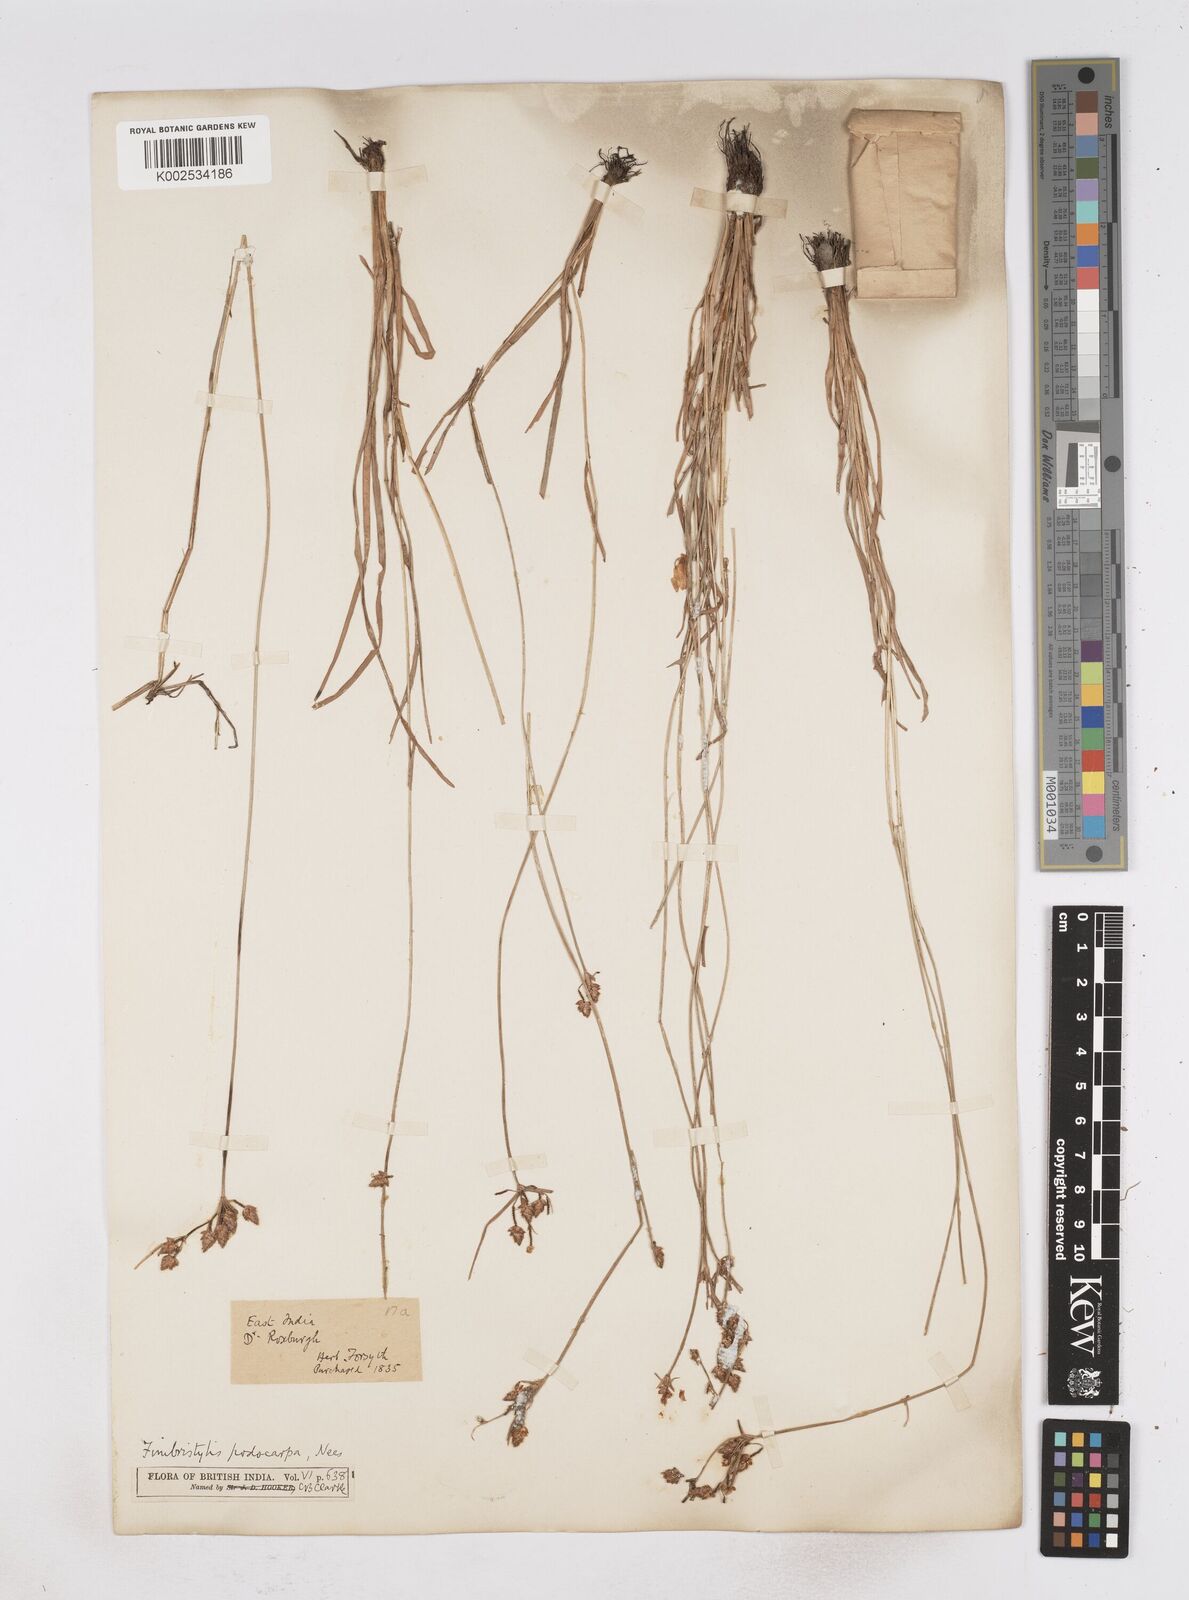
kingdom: Plantae
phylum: Tracheophyta
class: Liliopsida
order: Poales
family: Cyperaceae
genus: Fimbristylis
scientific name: Fimbristylis dichotoma
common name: Forked fimbry
